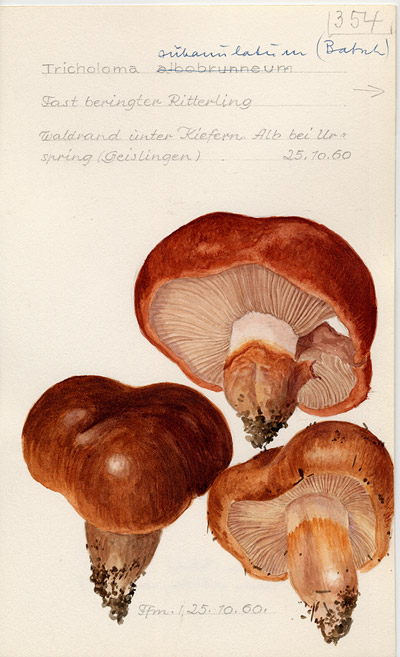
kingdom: Fungi
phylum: Basidiomycota
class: Agaricomycetes
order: Agaricales
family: Tricholomataceae
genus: Tricholoma
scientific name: Tricholoma fracticum
